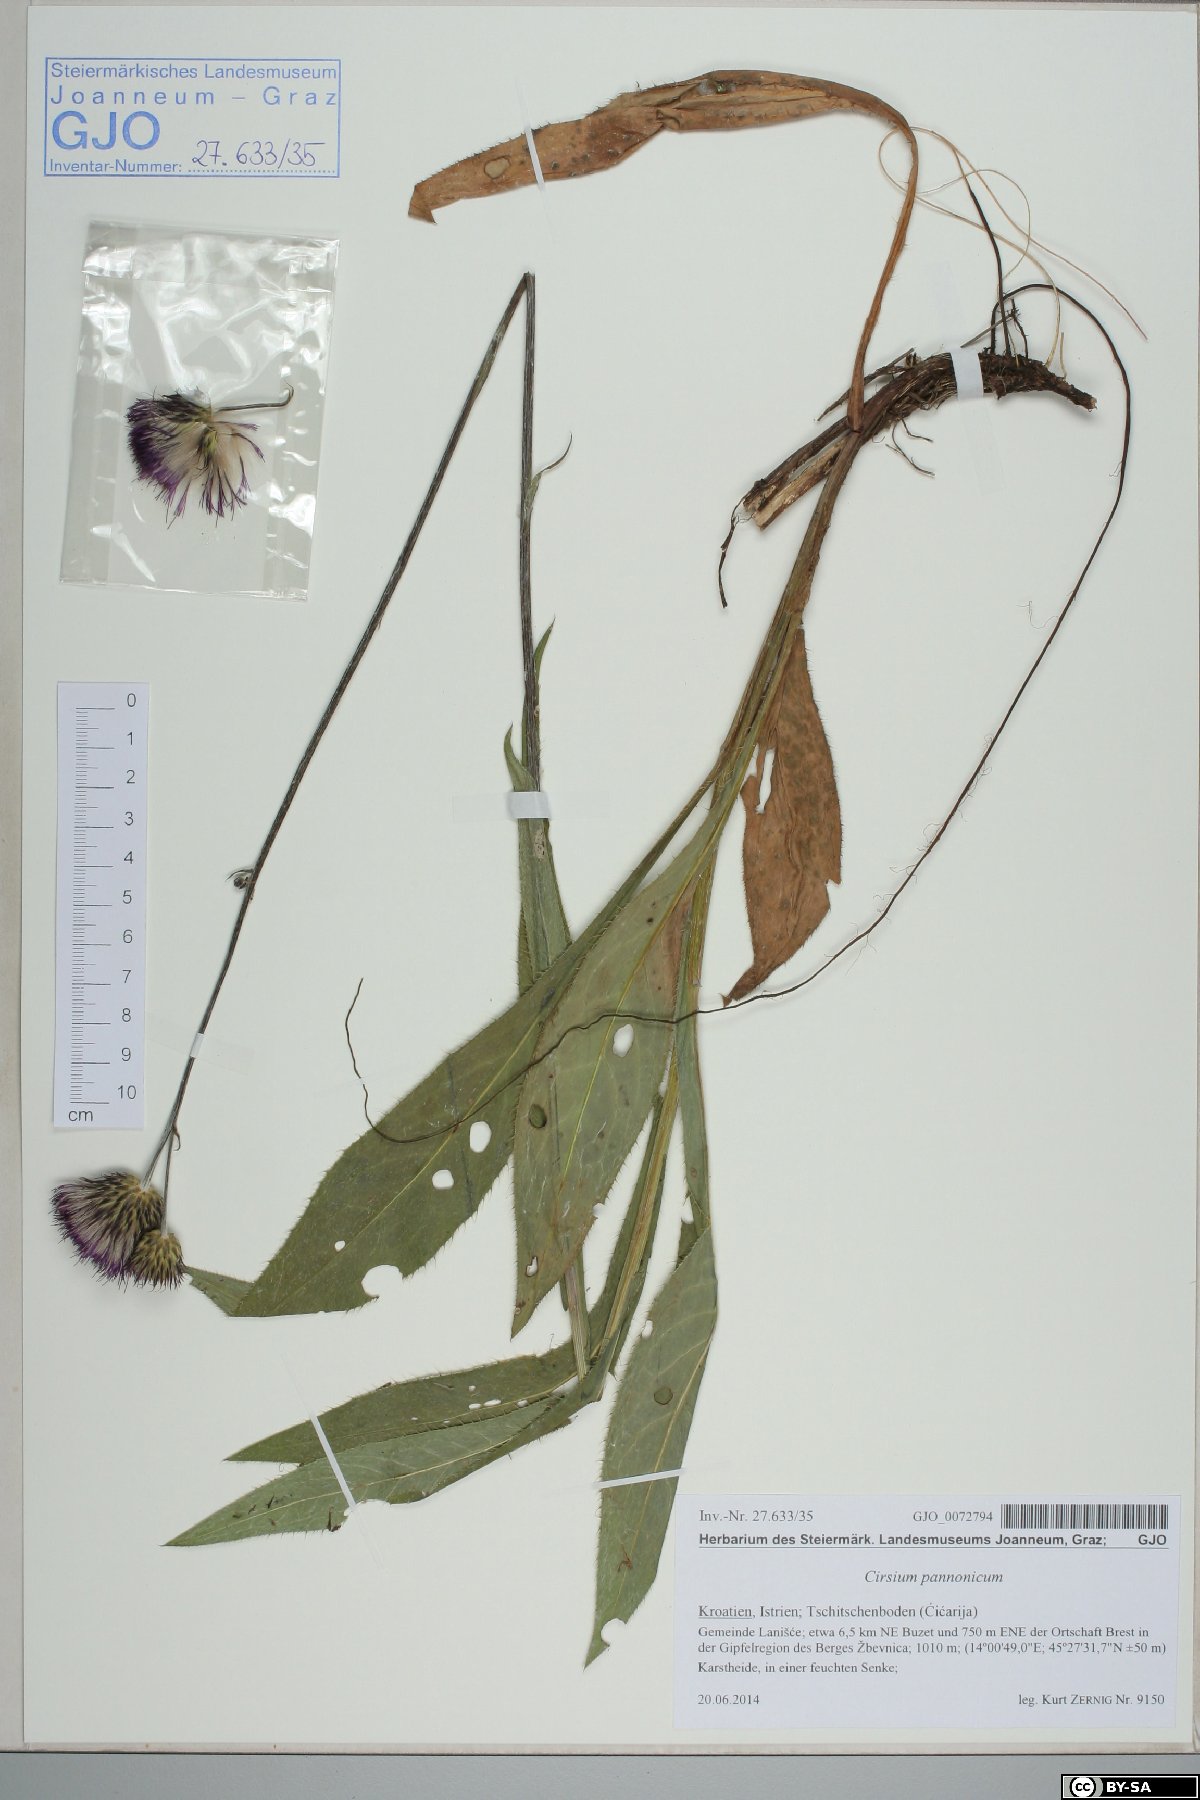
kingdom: Plantae
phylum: Tracheophyta
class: Magnoliopsida
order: Asterales
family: Asteraceae
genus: Cirsium
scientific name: Cirsium pannonicum
